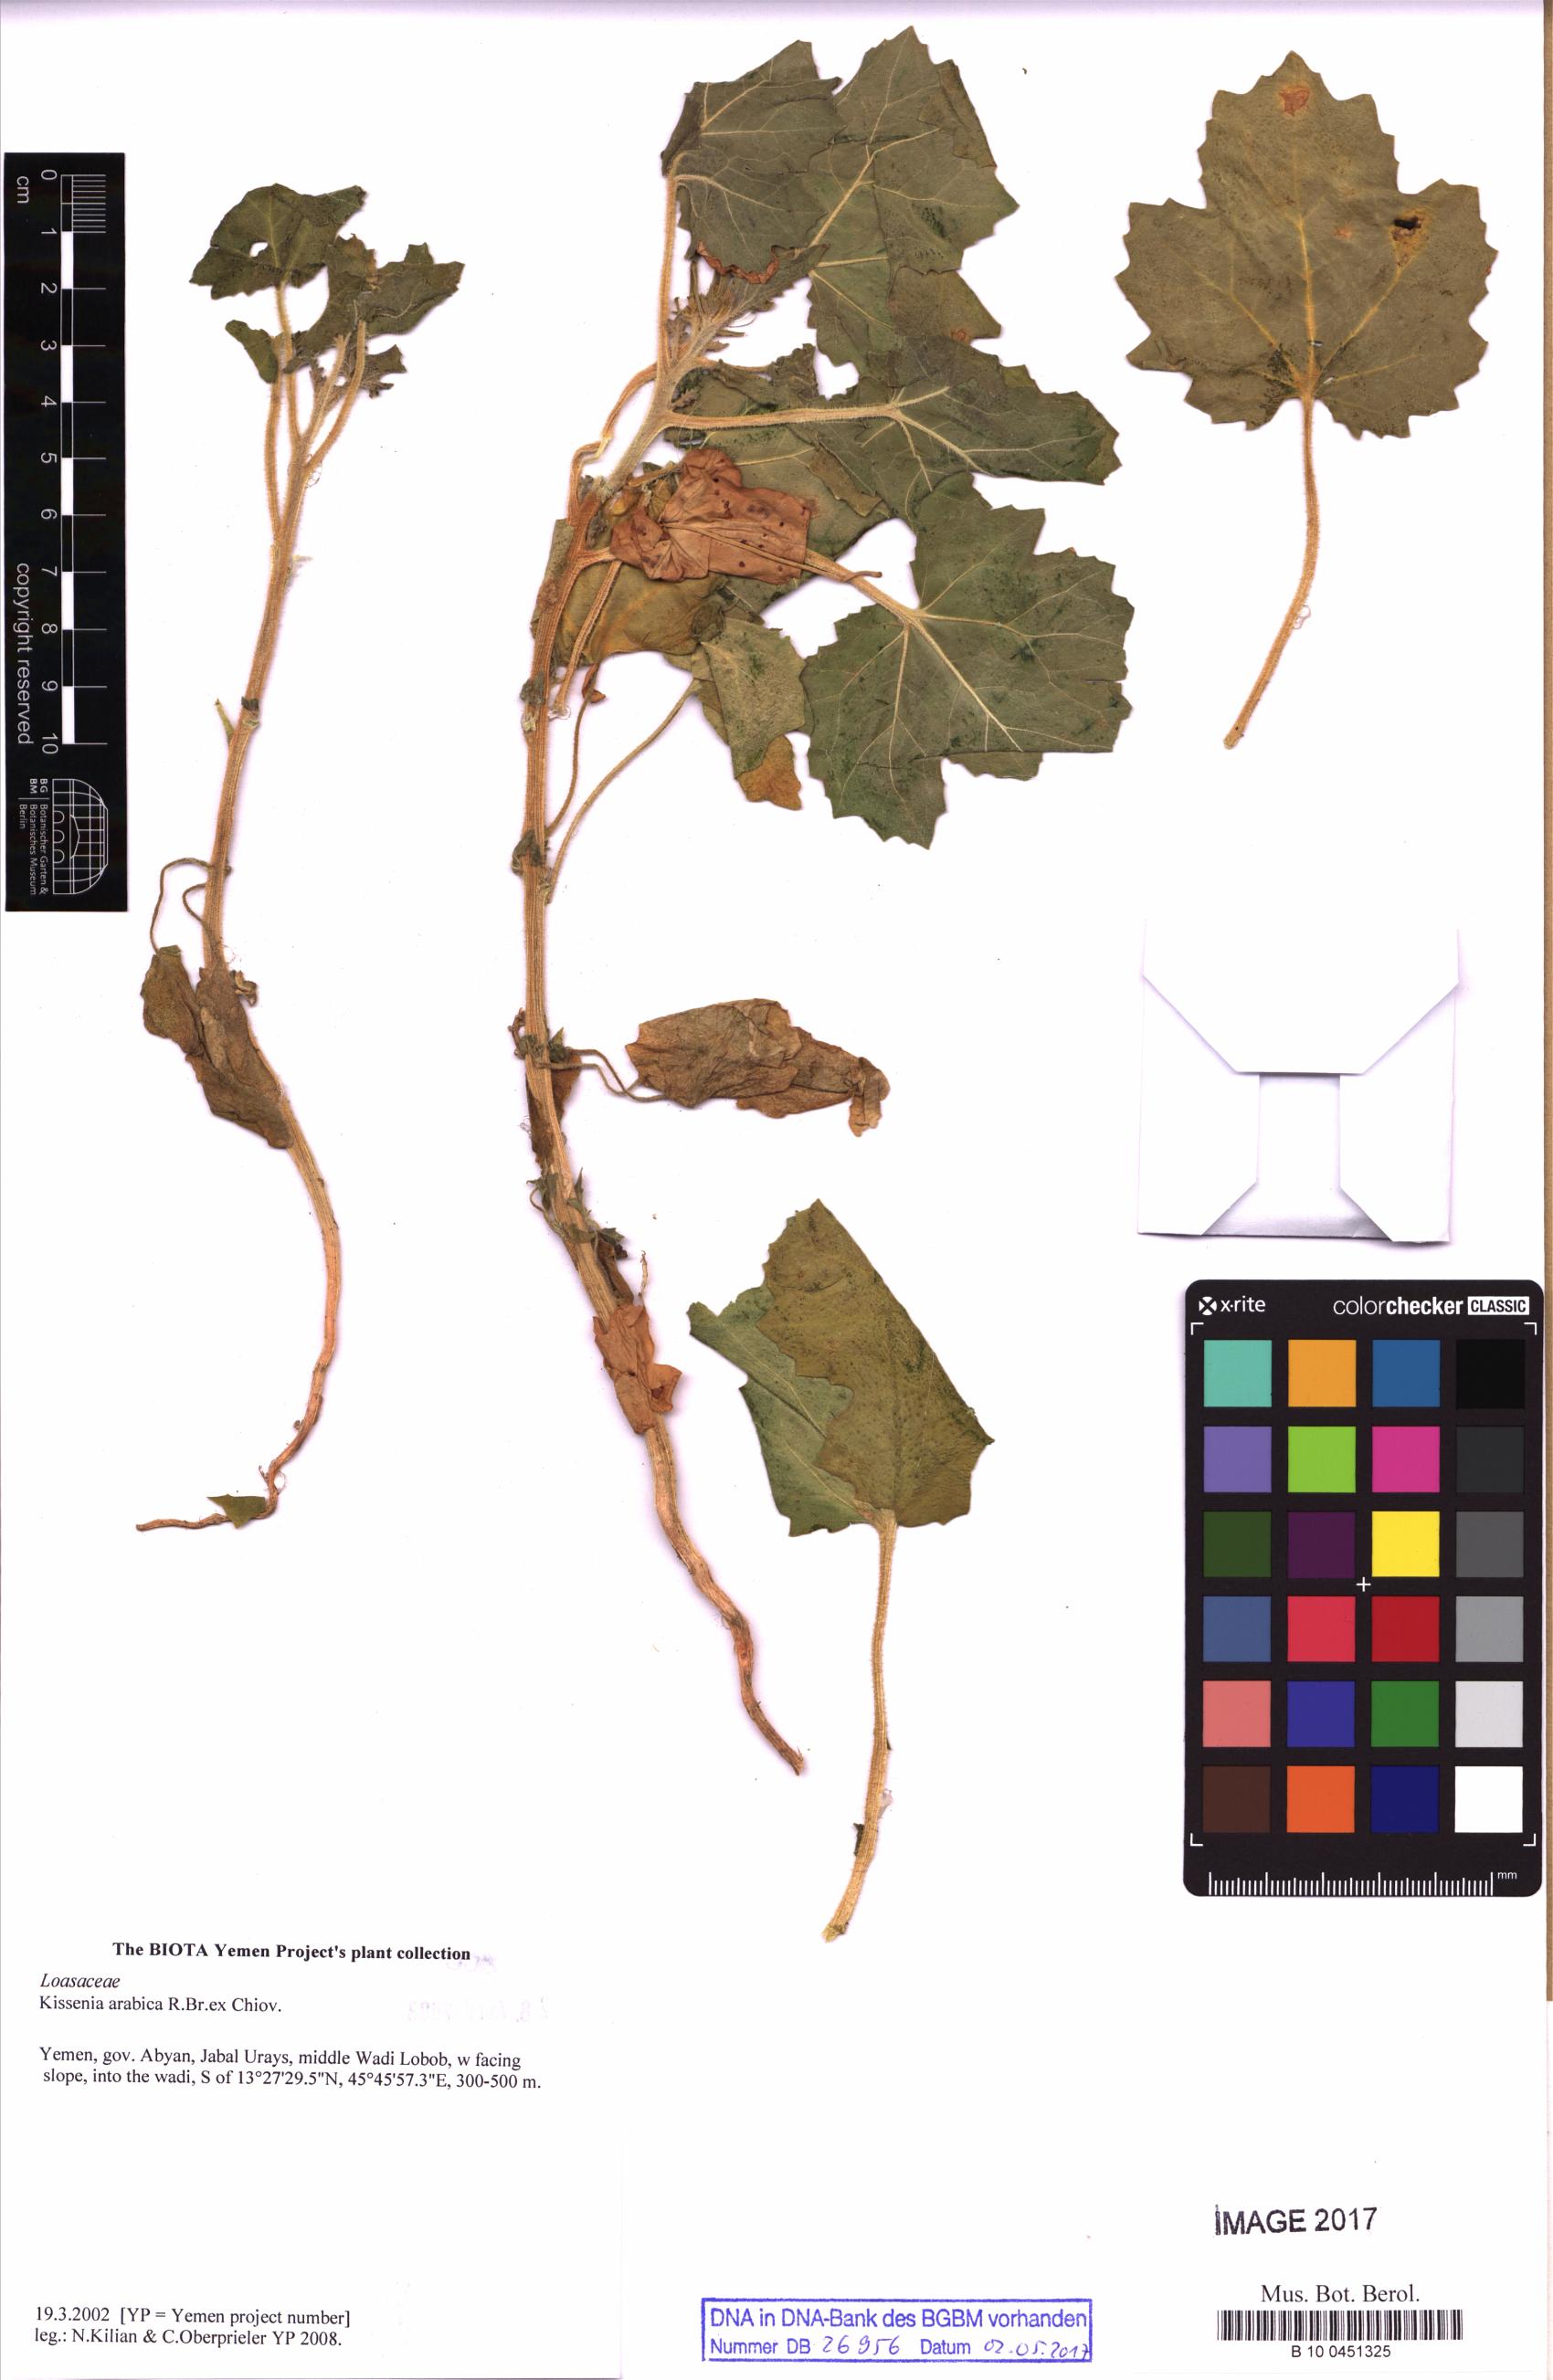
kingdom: Plantae
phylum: Tracheophyta
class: Magnoliopsida
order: Cornales
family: Loasaceae
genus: Kissenia
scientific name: Kissenia arabica
